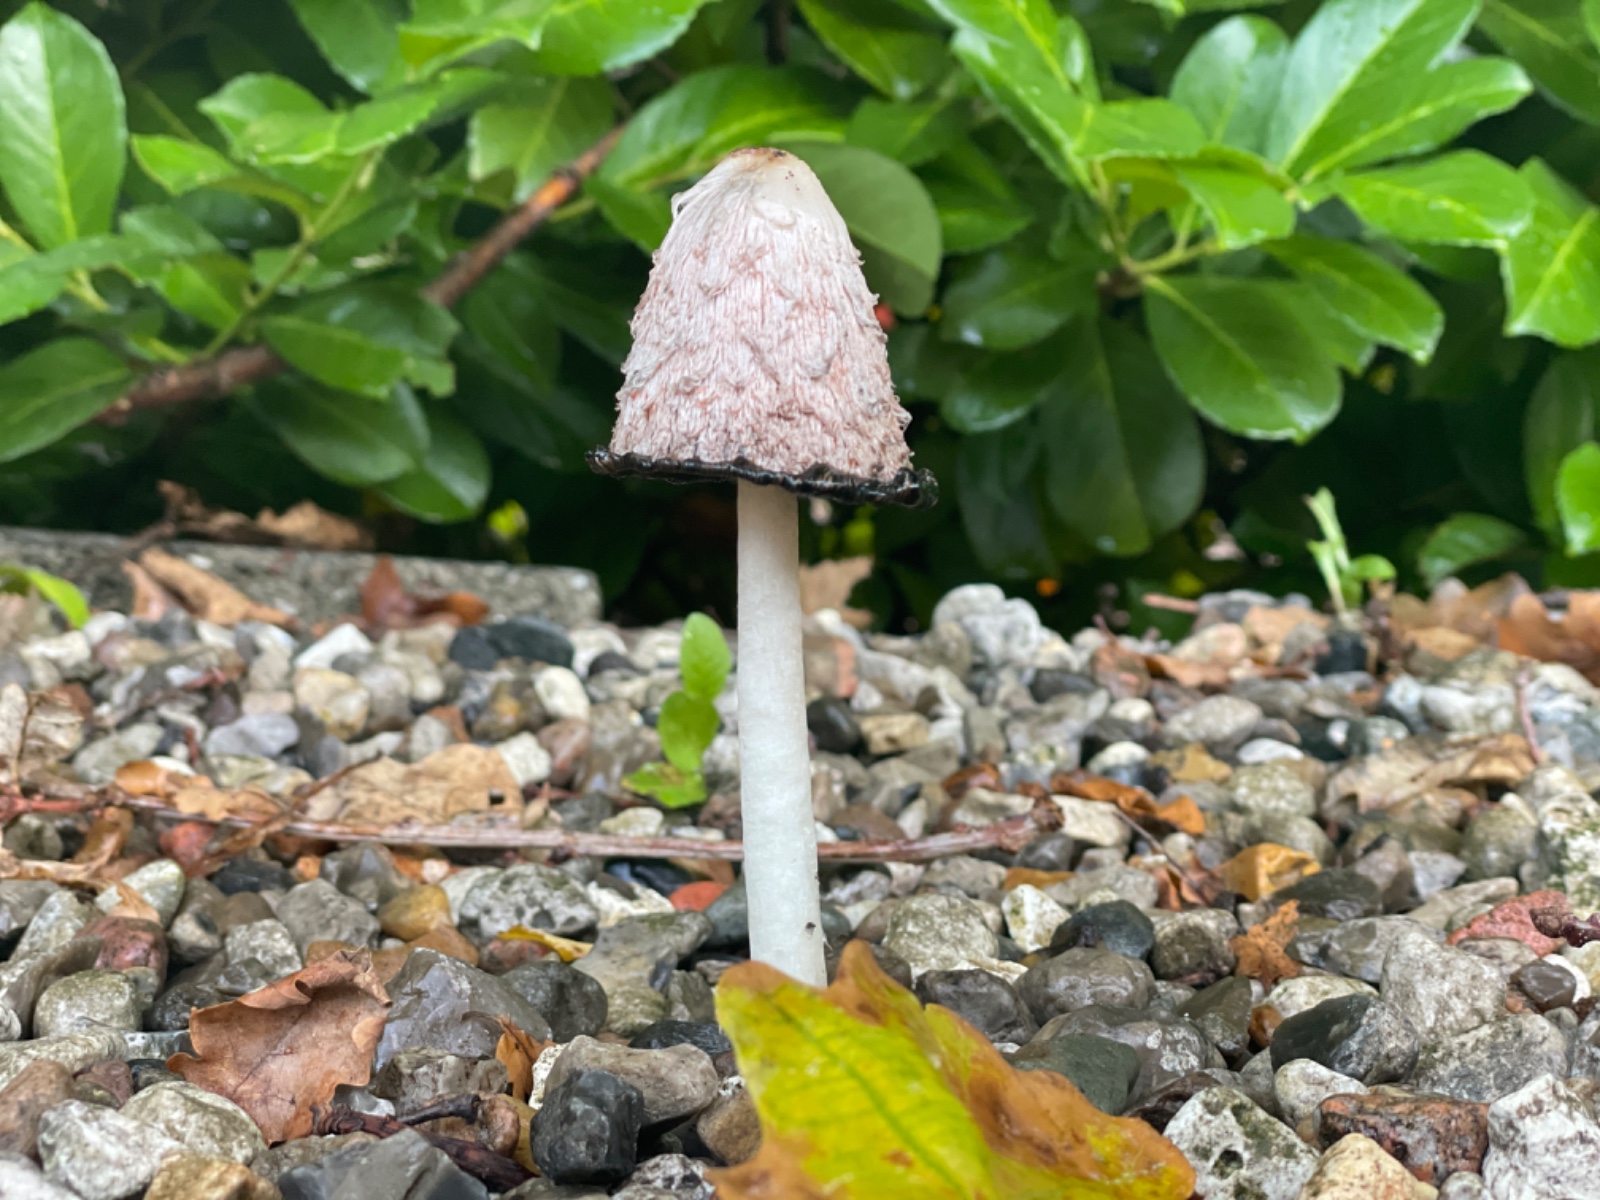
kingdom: Fungi
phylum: Basidiomycota
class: Agaricomycetes
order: Agaricales
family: Agaricaceae
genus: Coprinus
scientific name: Coprinus comatus
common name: stor parykhat
